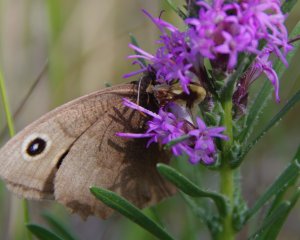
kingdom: Animalia
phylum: Arthropoda
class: Insecta
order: Lepidoptera
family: Nymphalidae
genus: Cercyonis
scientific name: Cercyonis pegala
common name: Common Wood-Nymph
